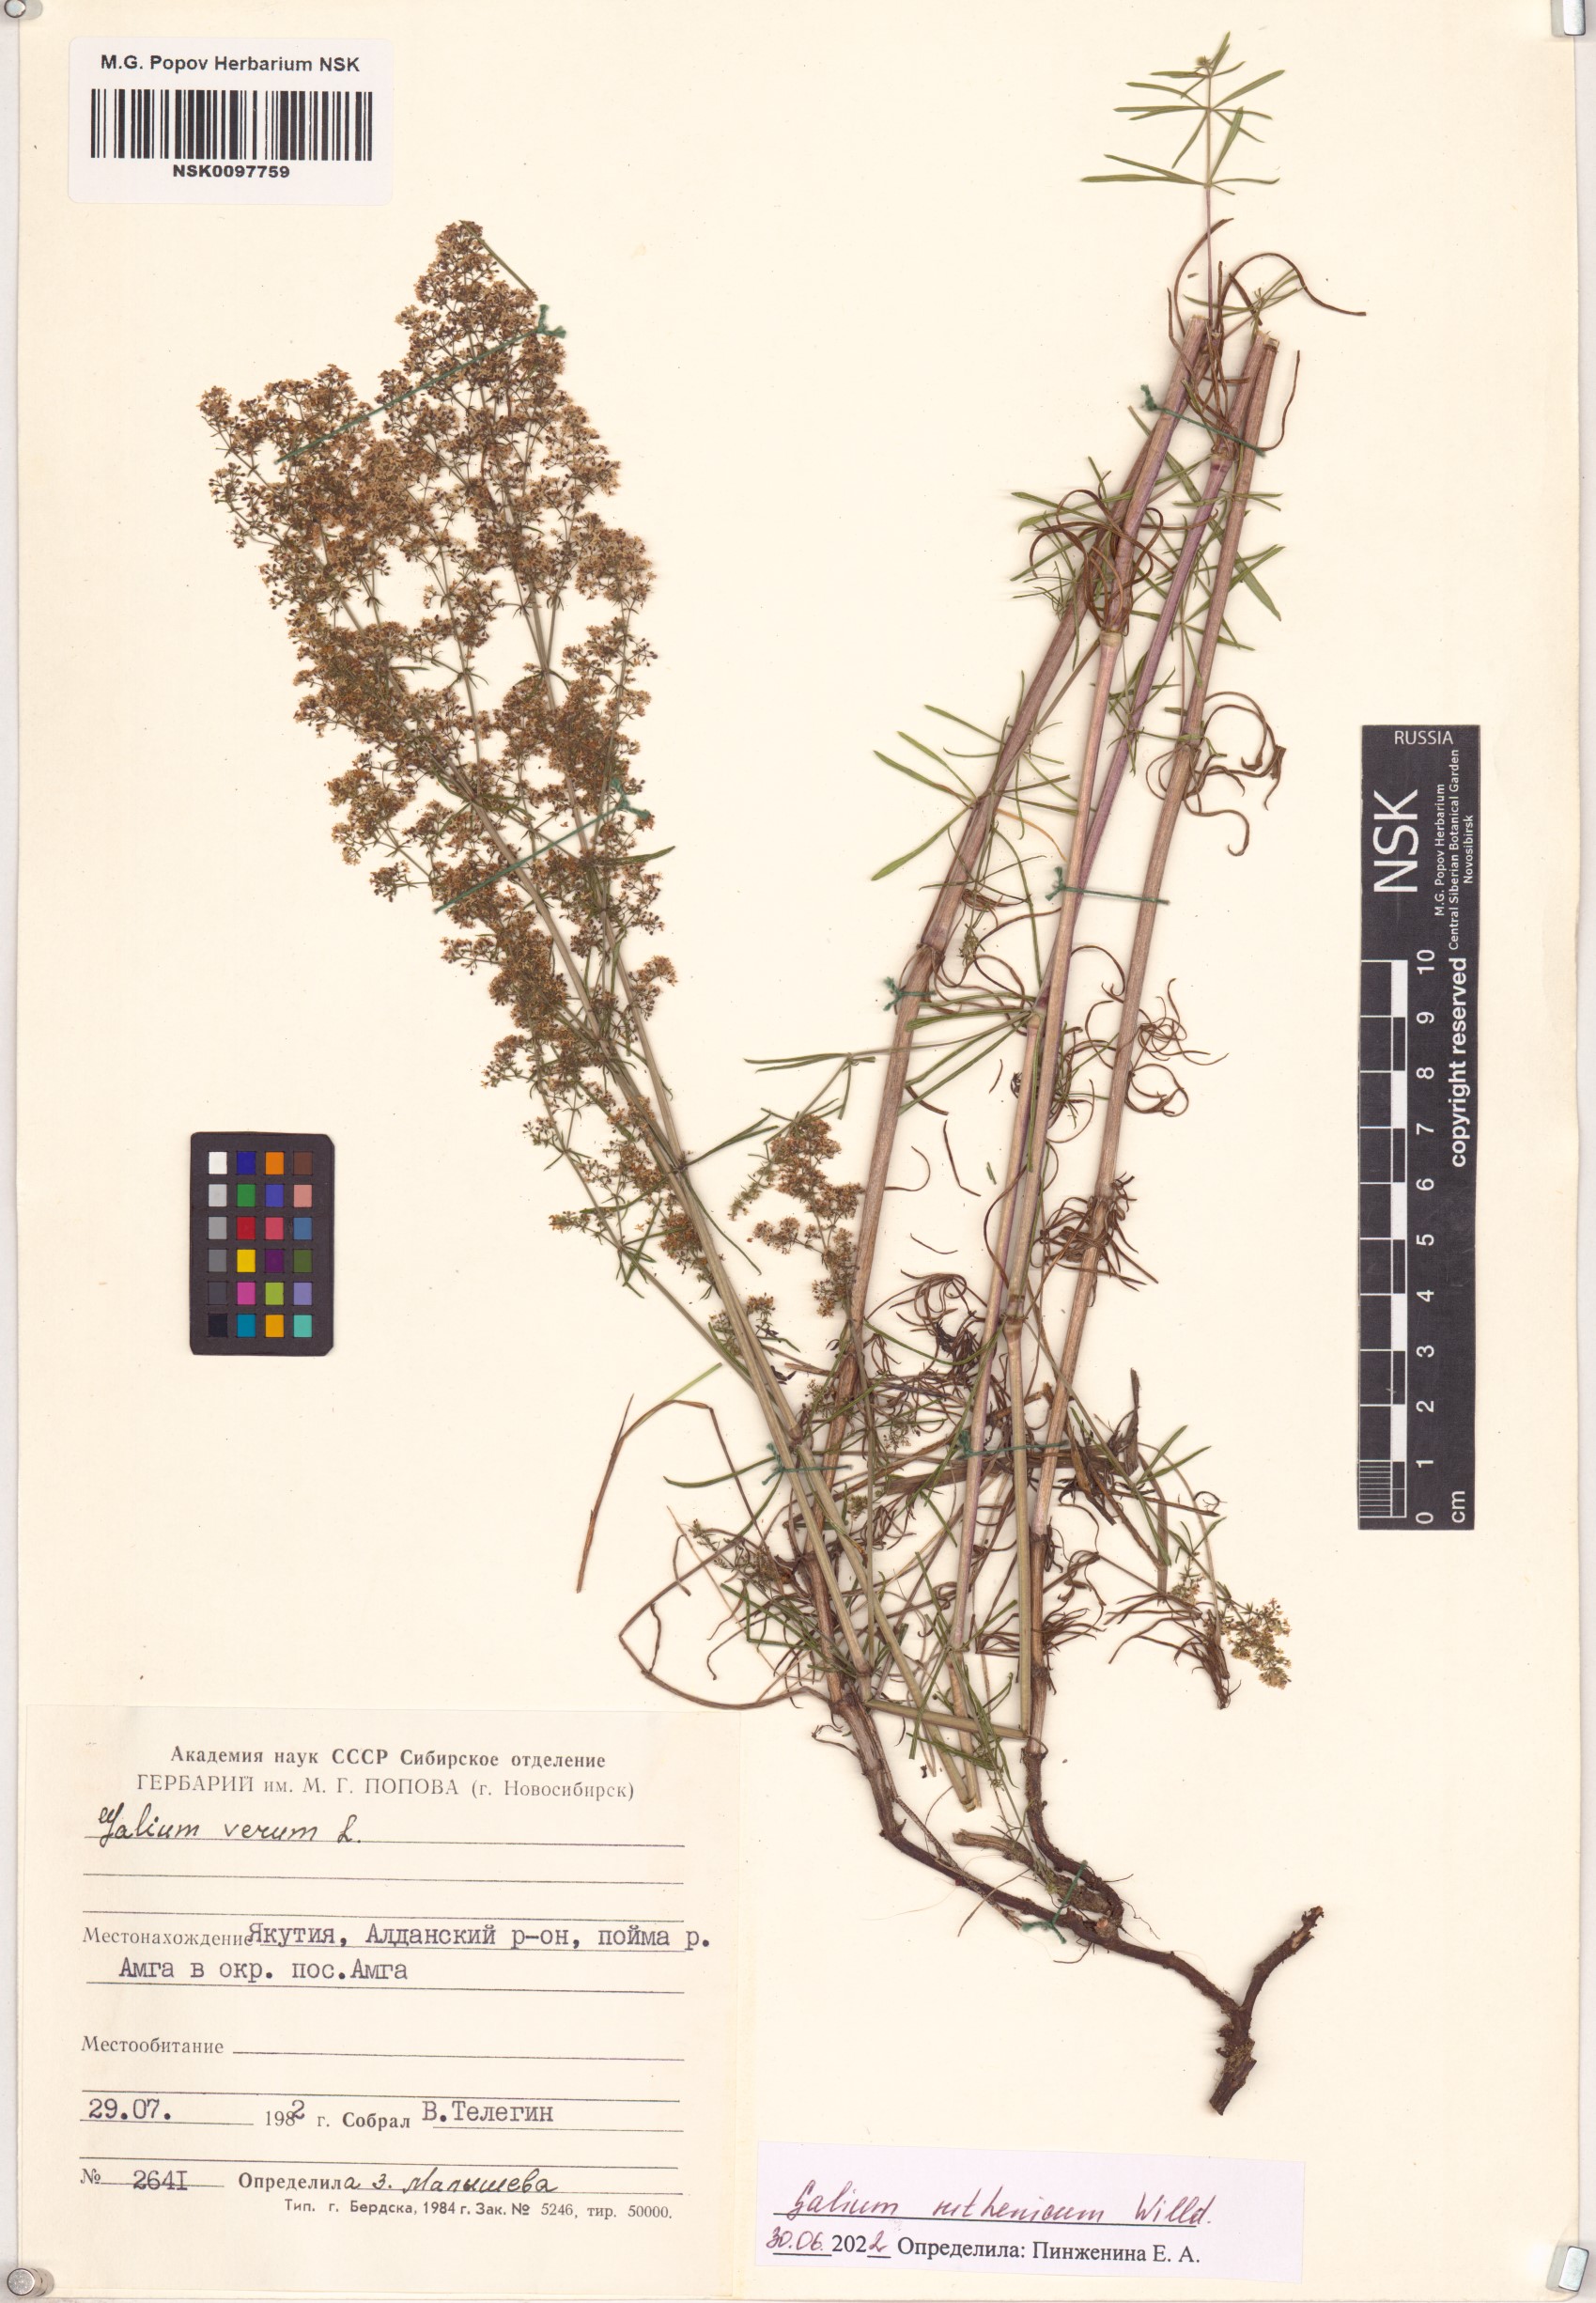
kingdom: Plantae
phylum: Tracheophyta
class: Magnoliopsida
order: Gentianales
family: Rubiaceae
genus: Galium
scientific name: Galium verum
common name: Lady's bedstraw
